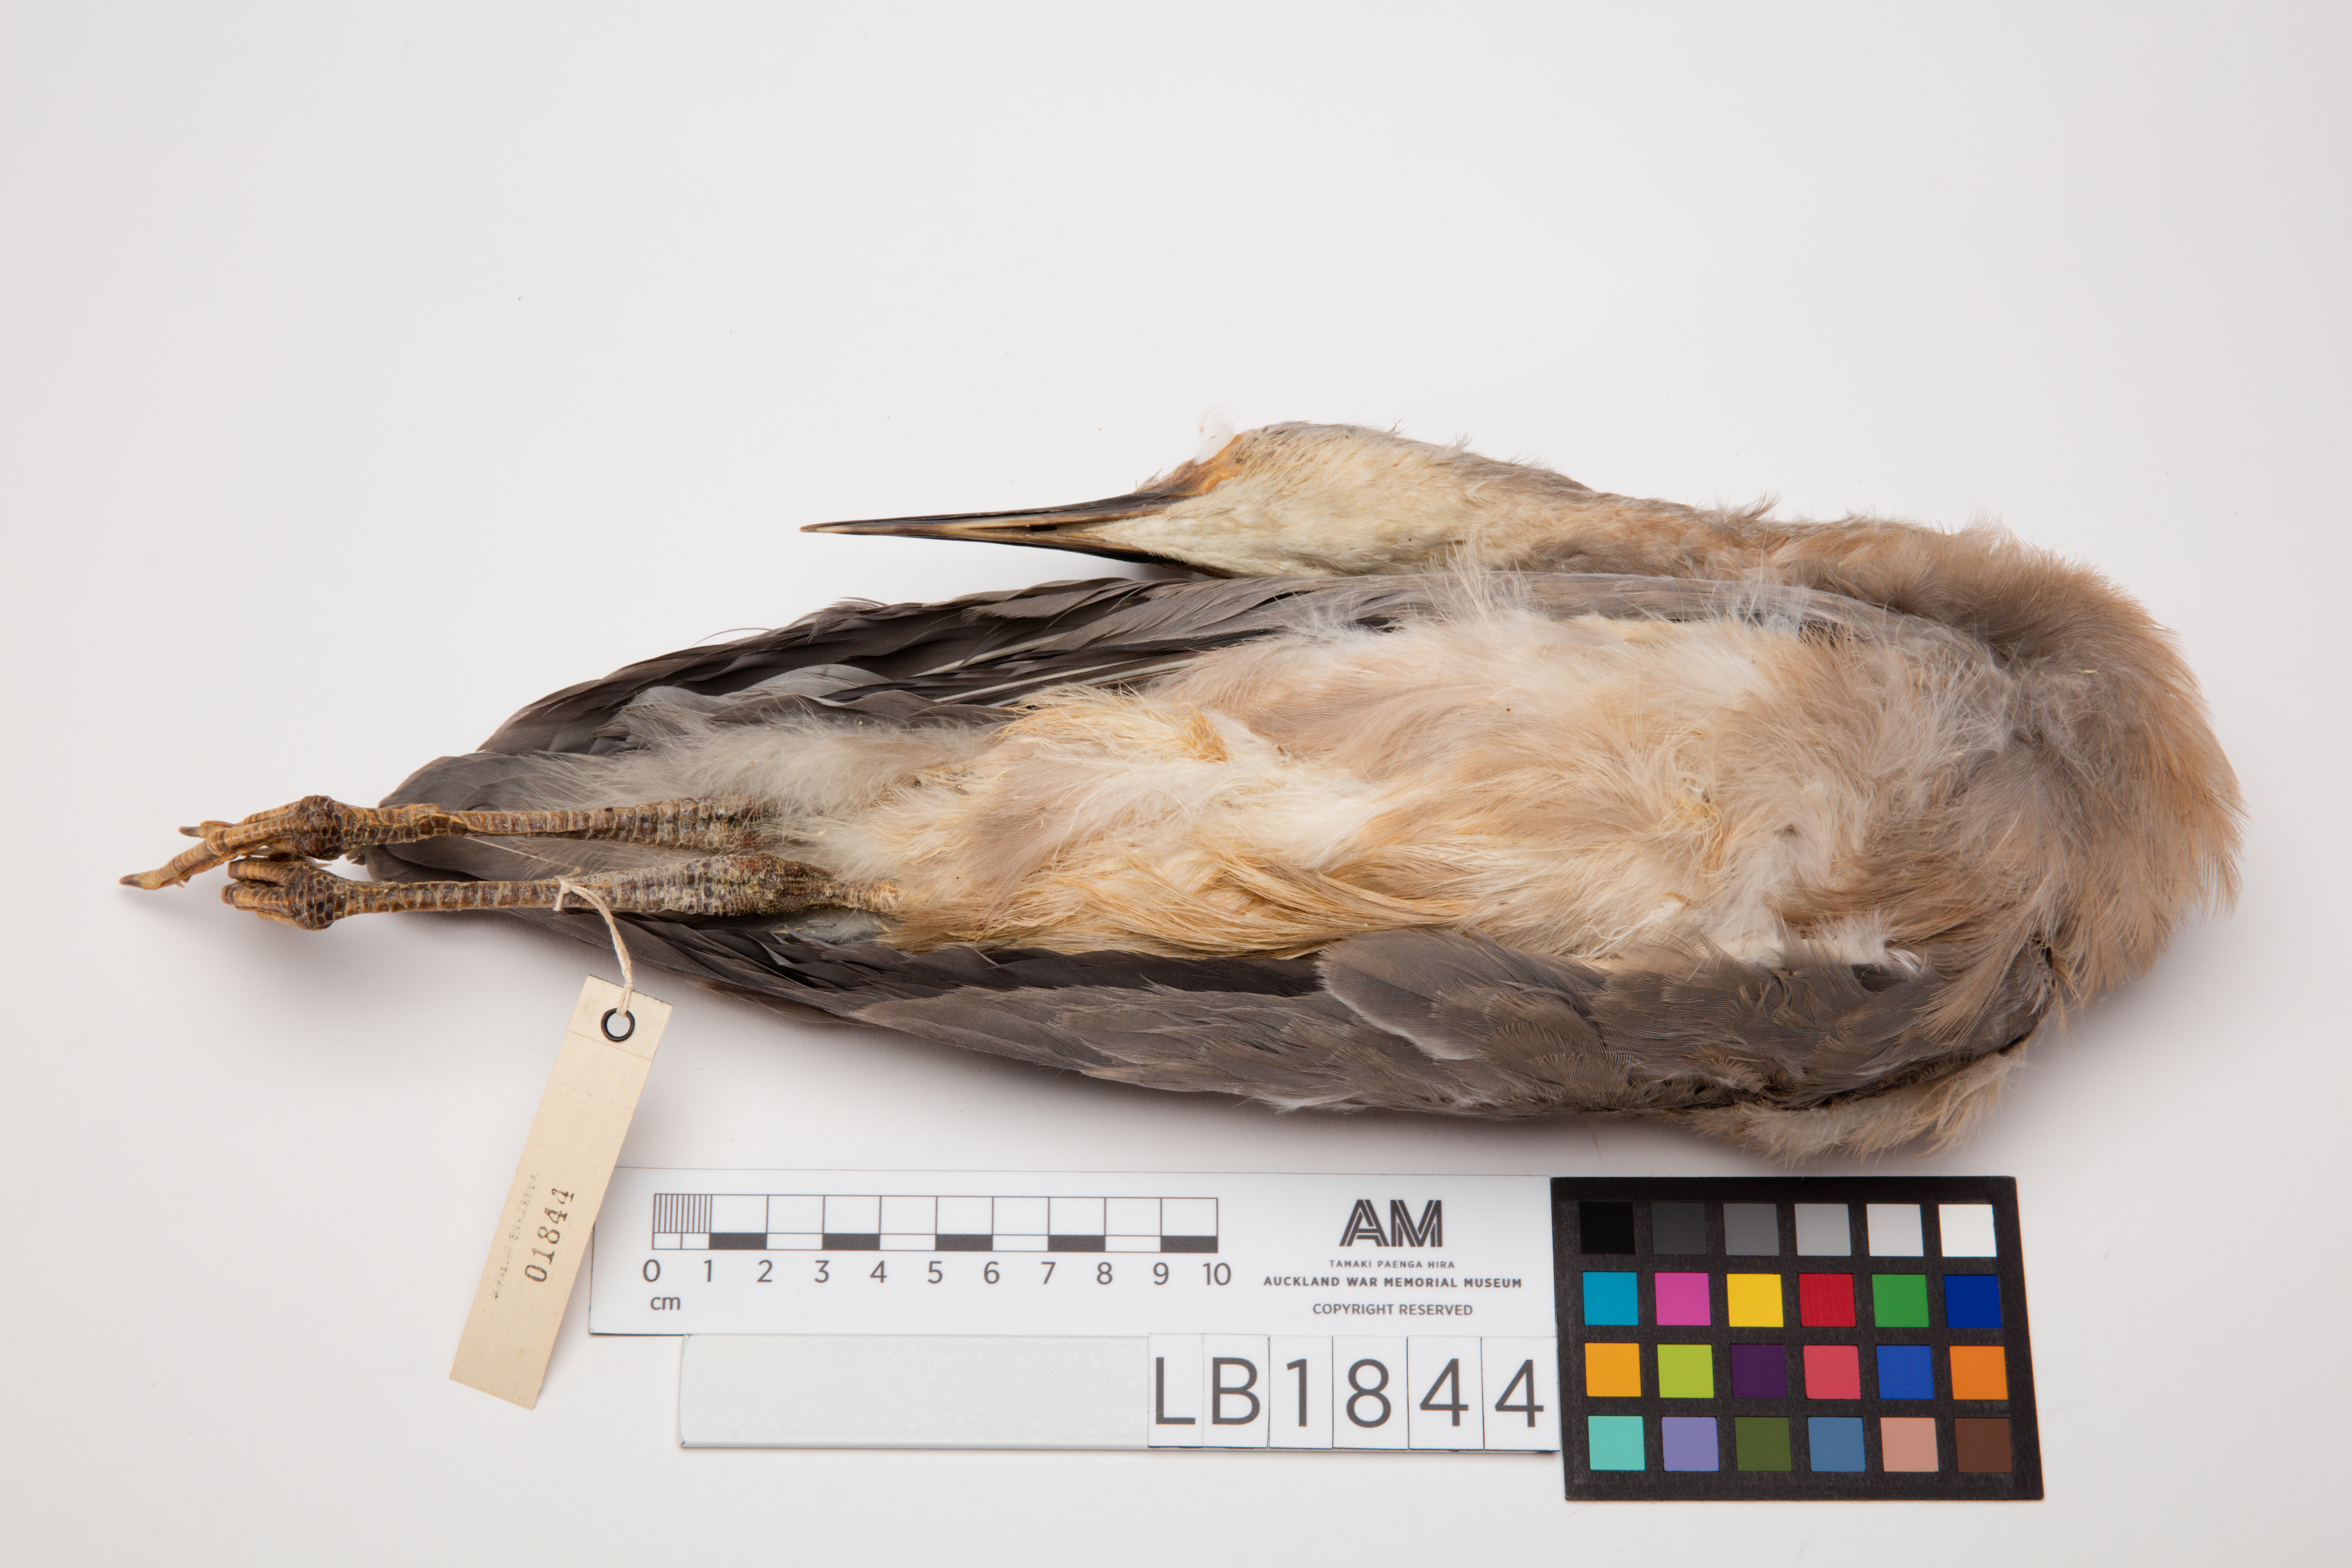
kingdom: Animalia
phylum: Chordata
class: Aves
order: Pelecaniformes
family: Ardeidae
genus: Egretta
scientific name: Egretta novaehollandiae
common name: White-faced heron
